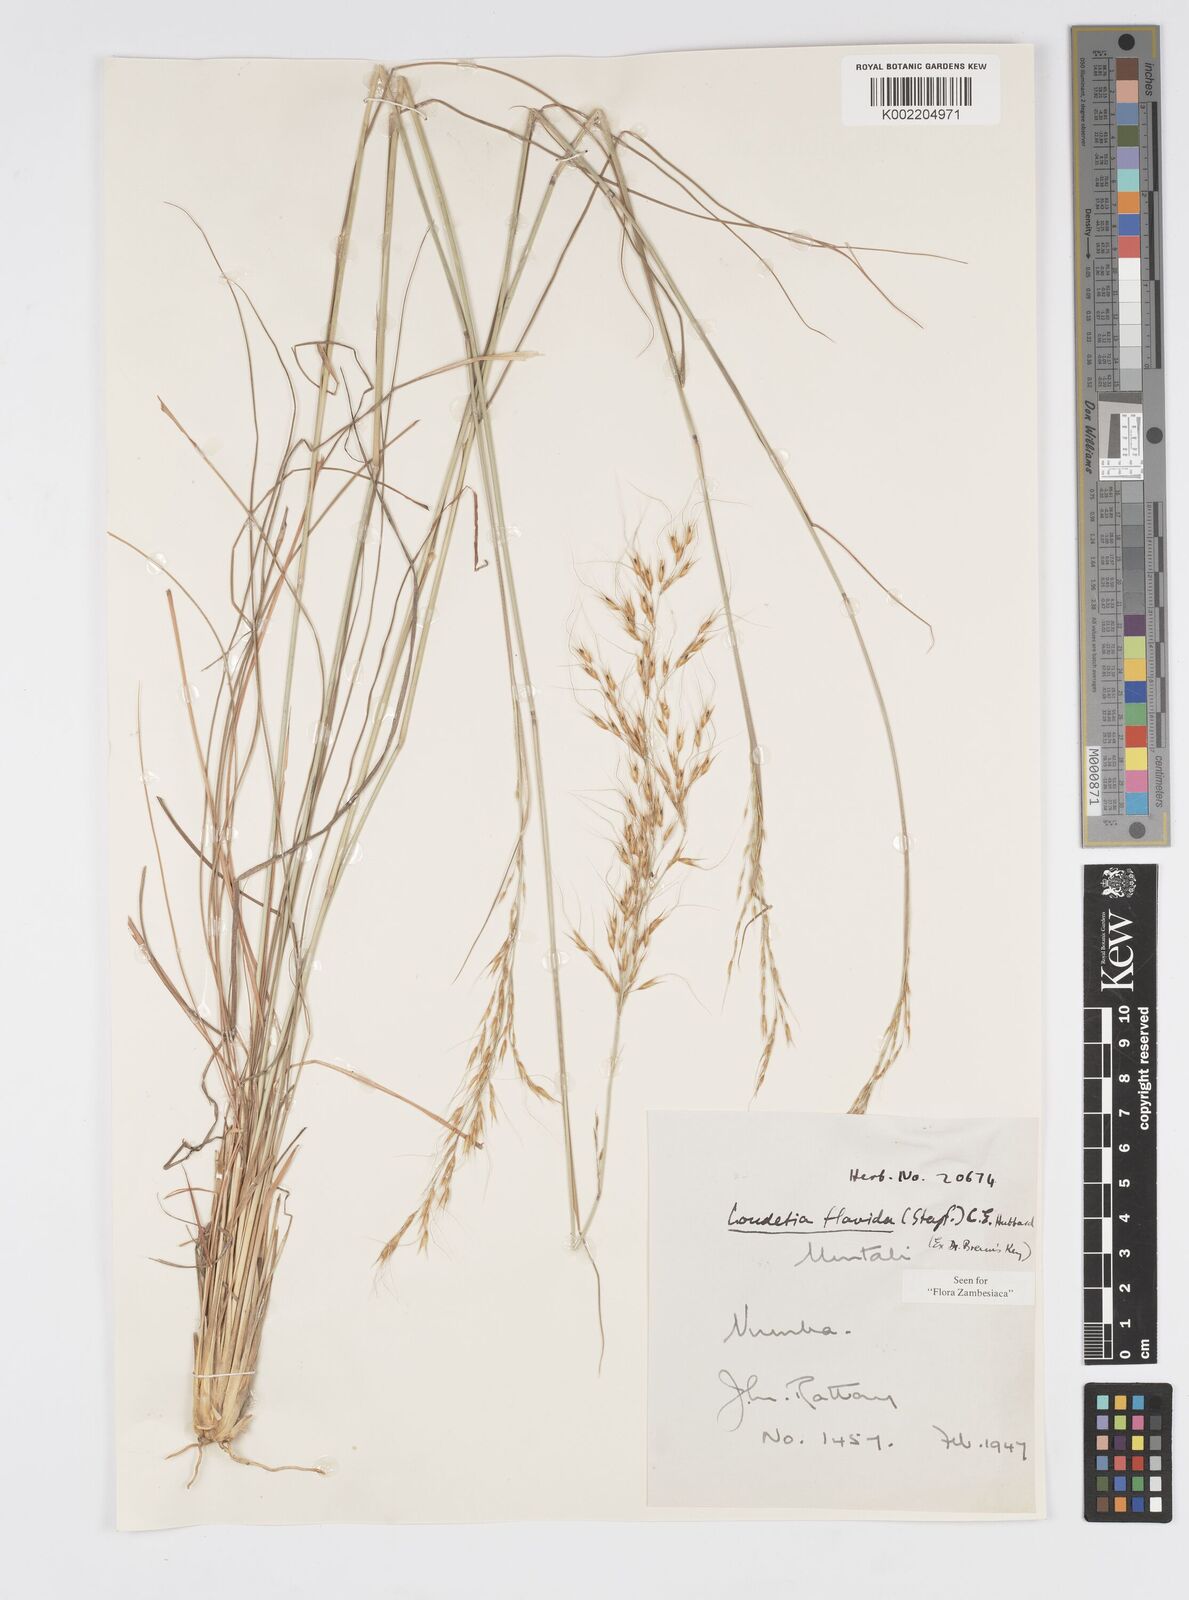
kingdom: Plantae
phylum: Tracheophyta
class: Liliopsida
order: Poales
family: Poaceae
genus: Loudetia
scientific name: Loudetia flavida
